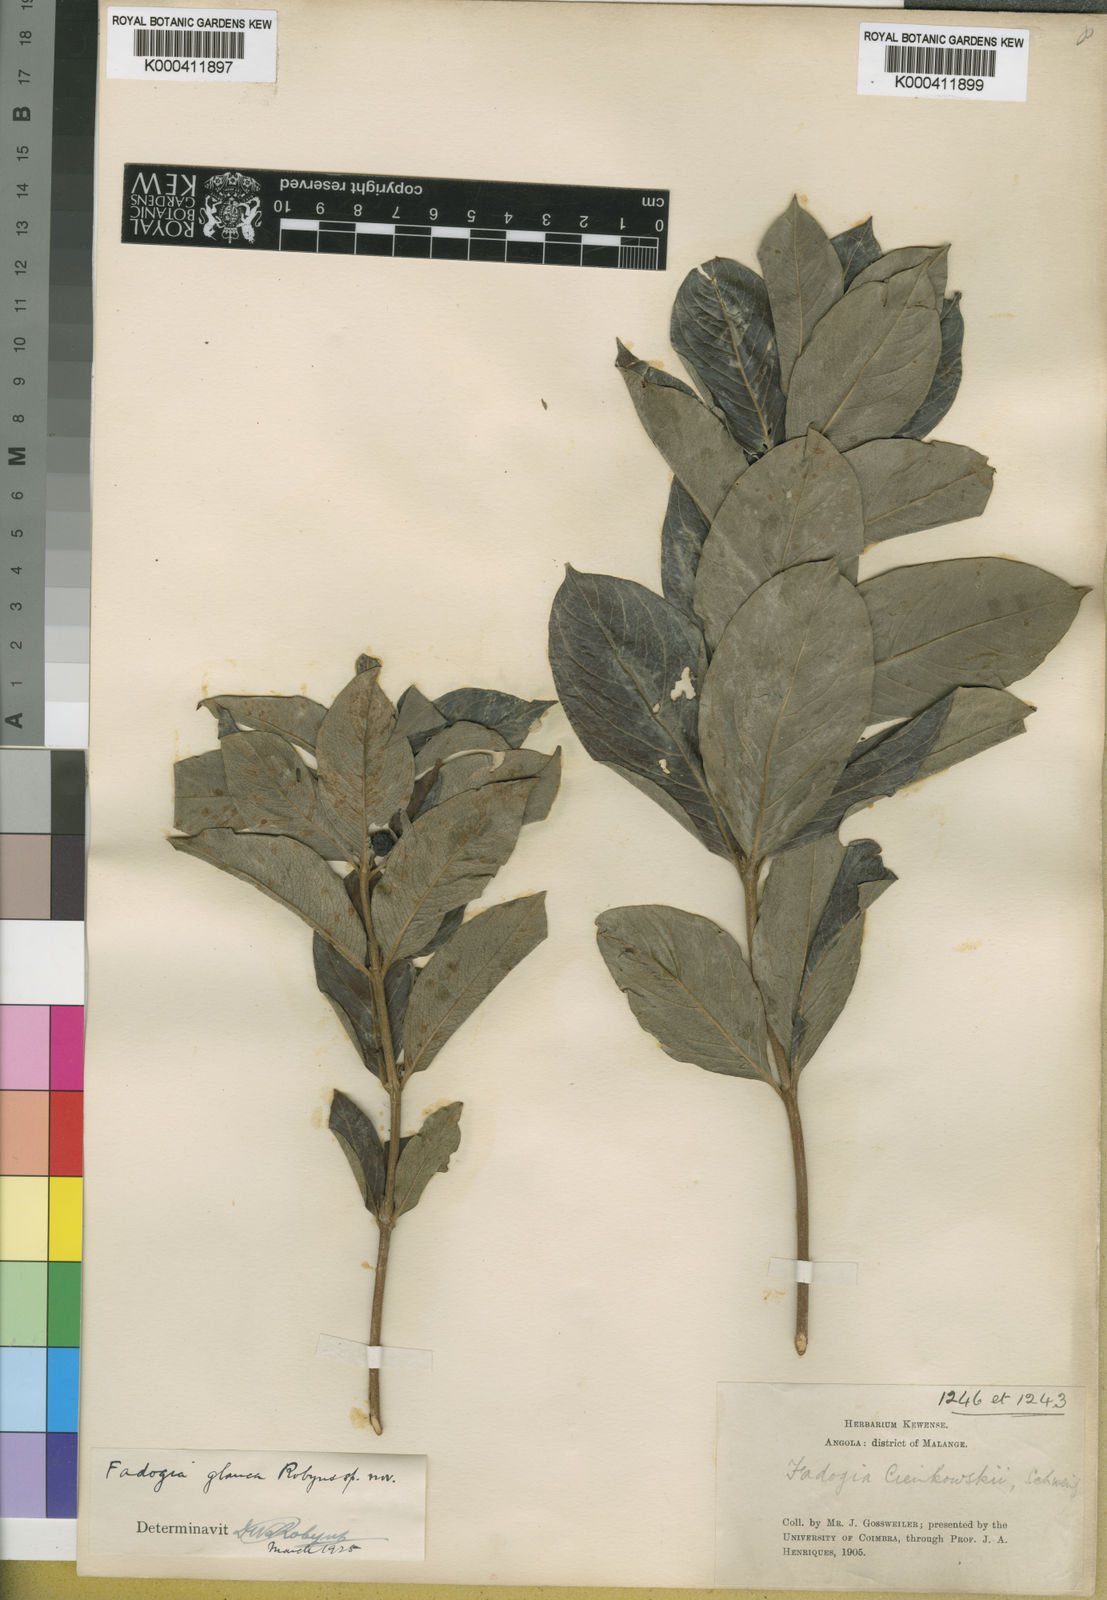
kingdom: Plantae
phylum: Tracheophyta
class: Magnoliopsida
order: Gentianales
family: Rubiaceae
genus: Fadogia
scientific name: Fadogia tetraquetra
